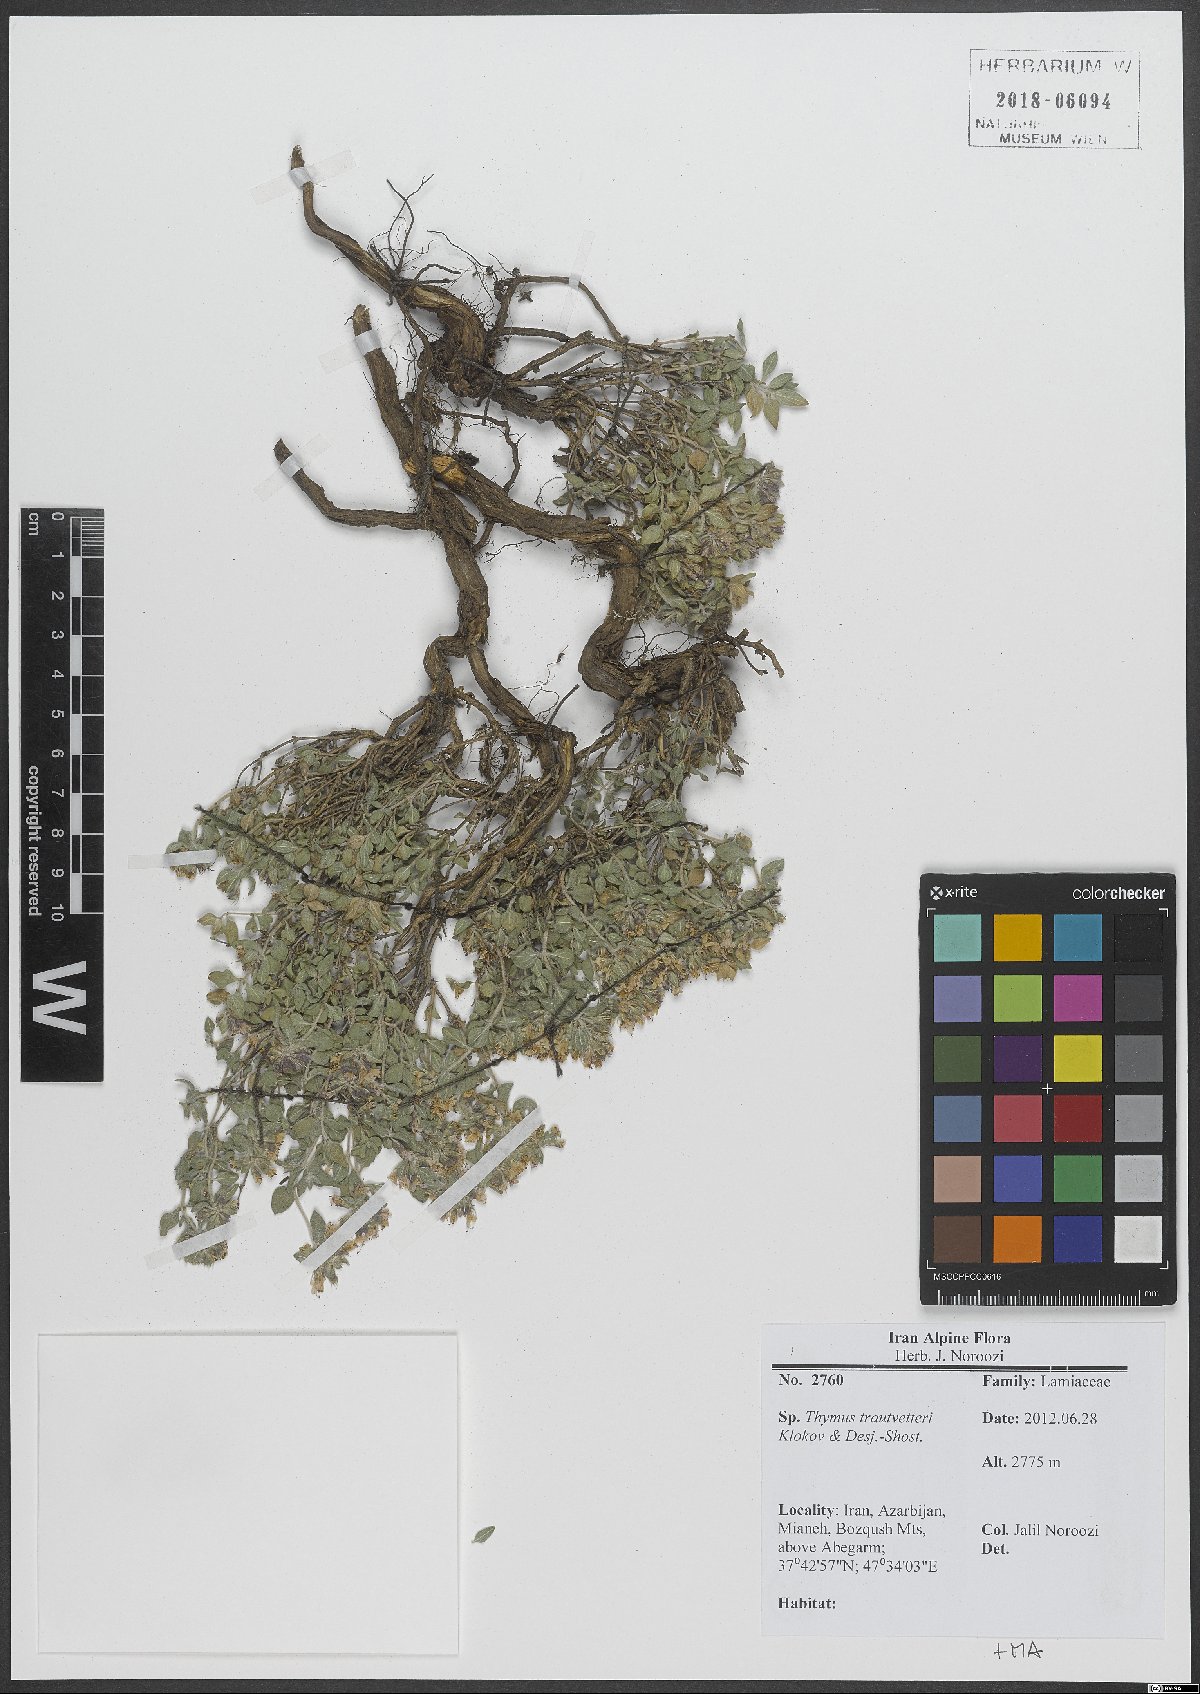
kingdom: Plantae
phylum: Tracheophyta
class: Magnoliopsida
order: Lamiales
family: Lamiaceae
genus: Thymus
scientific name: Thymus trautvetteri
